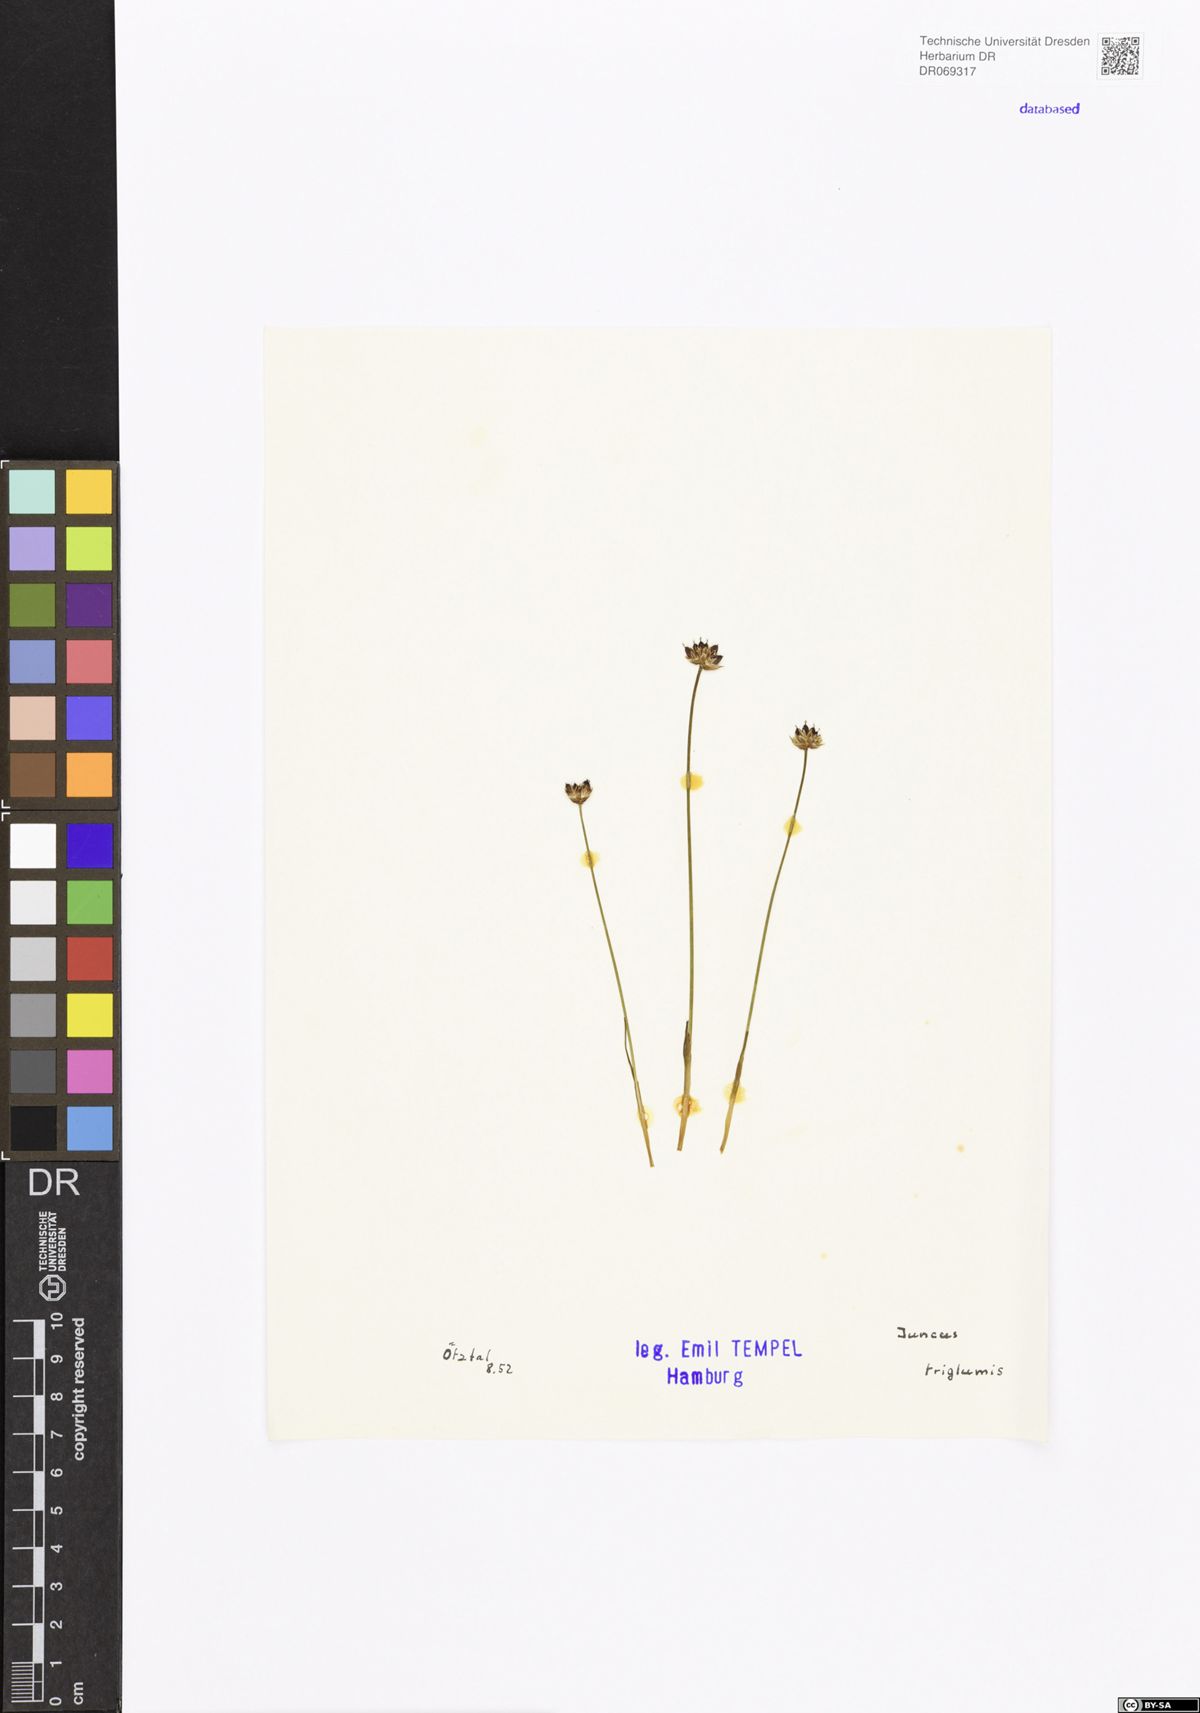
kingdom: Plantae
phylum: Tracheophyta
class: Liliopsida
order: Poales
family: Juncaceae
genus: Juncus
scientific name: Juncus triglumis
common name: Three-flowered rush
